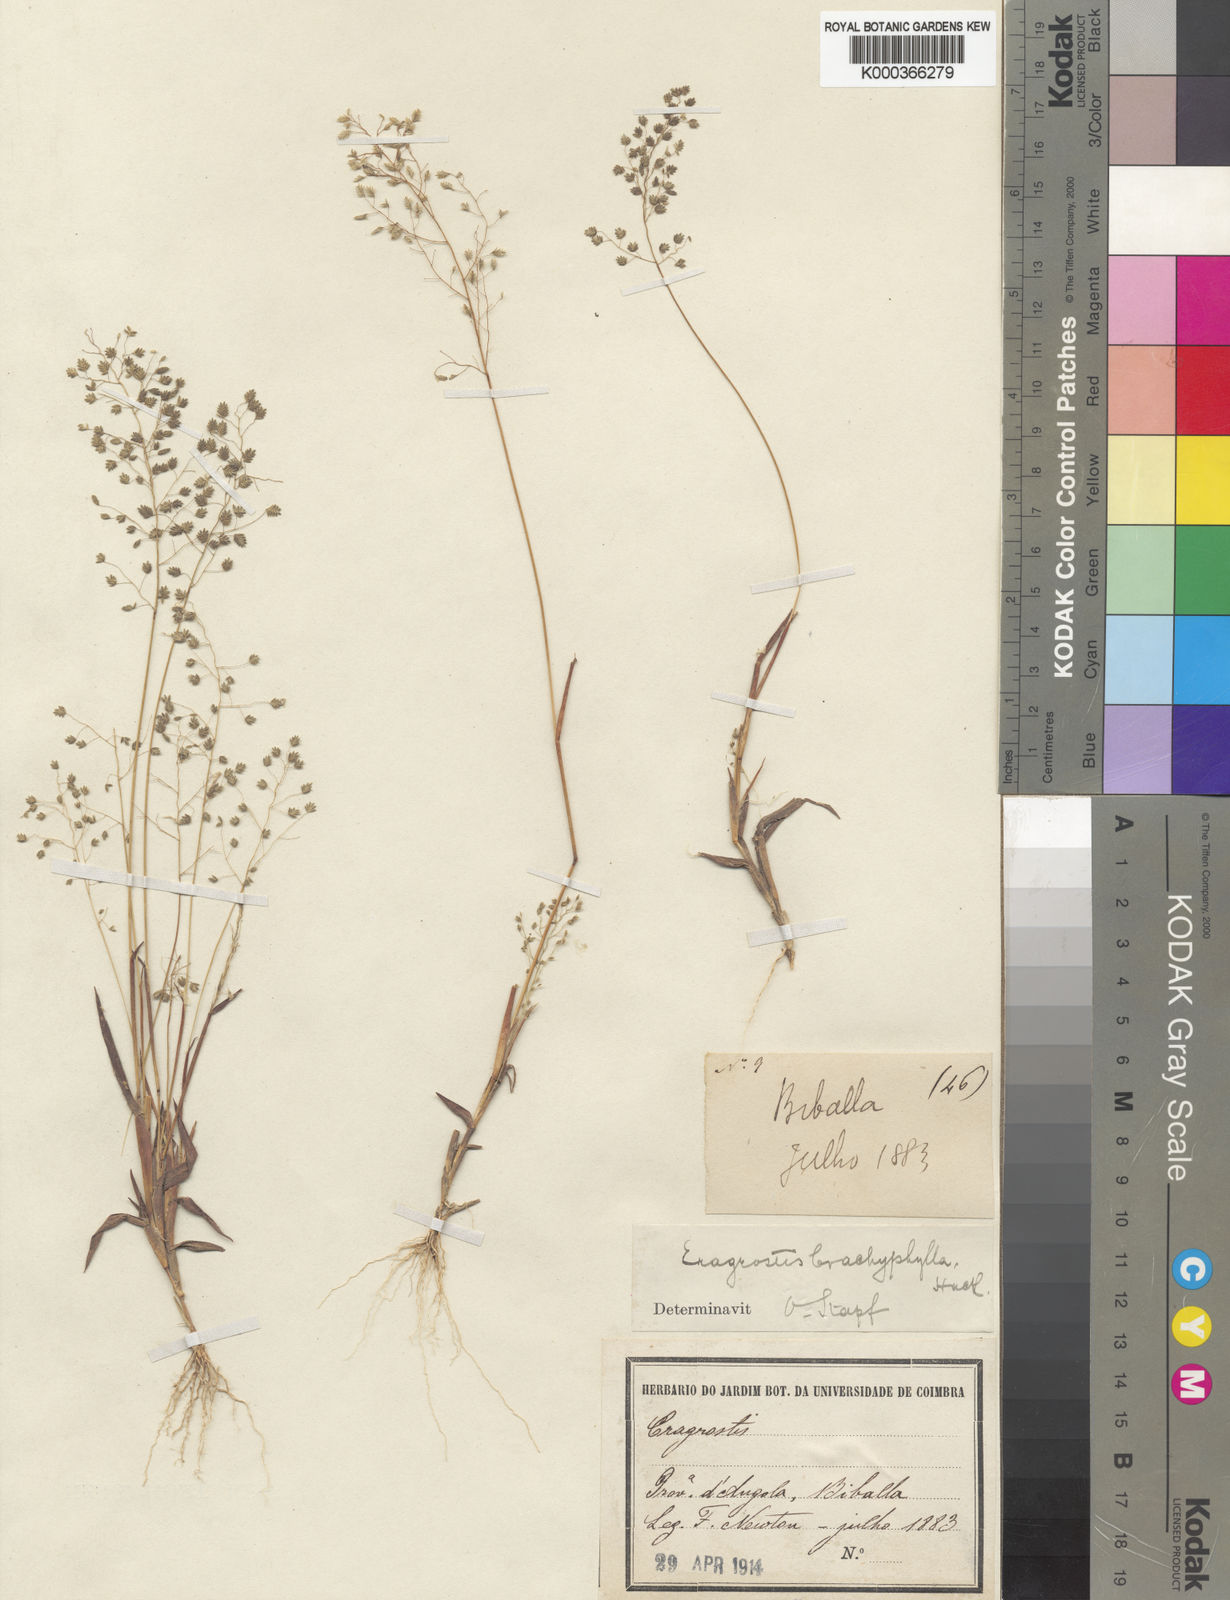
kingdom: Plantae
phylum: Tracheophyta
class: Liliopsida
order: Poales
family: Poaceae
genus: Eragrostis
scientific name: Eragrostis vacillans
